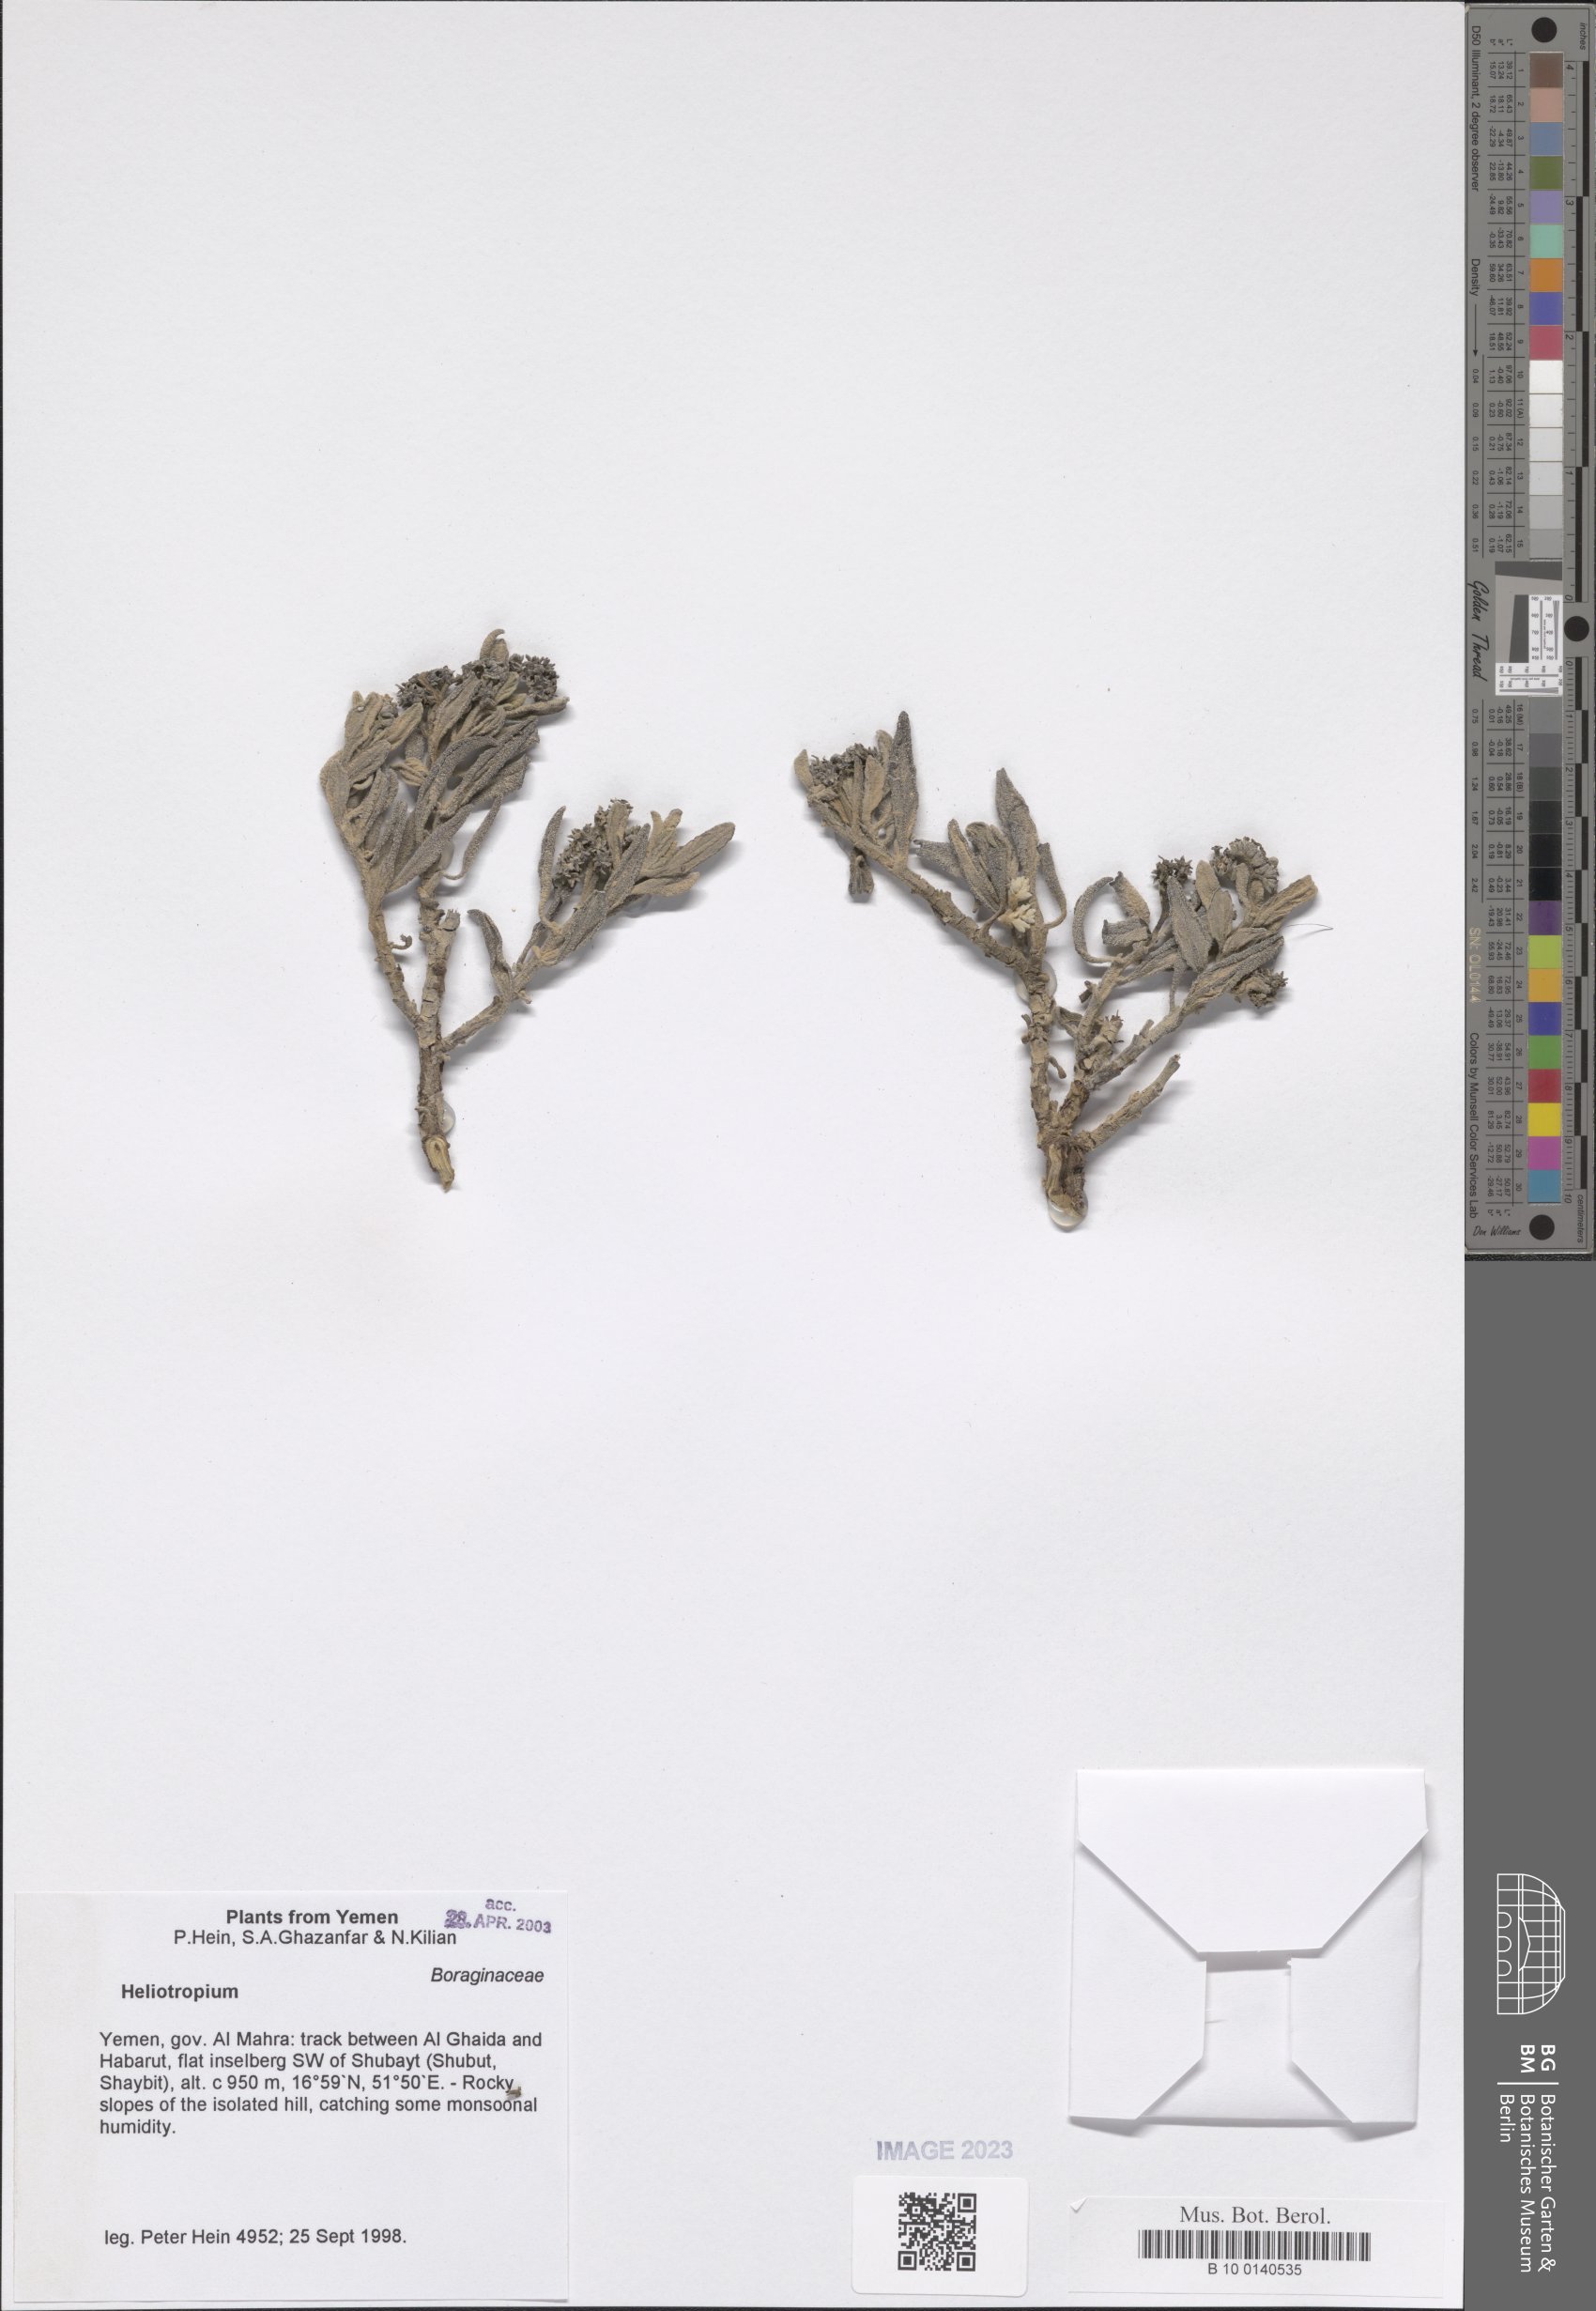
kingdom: Plantae
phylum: Tracheophyta
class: Magnoliopsida
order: Boraginales
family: Heliotropiaceae
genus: Heliotropium
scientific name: Heliotropium
